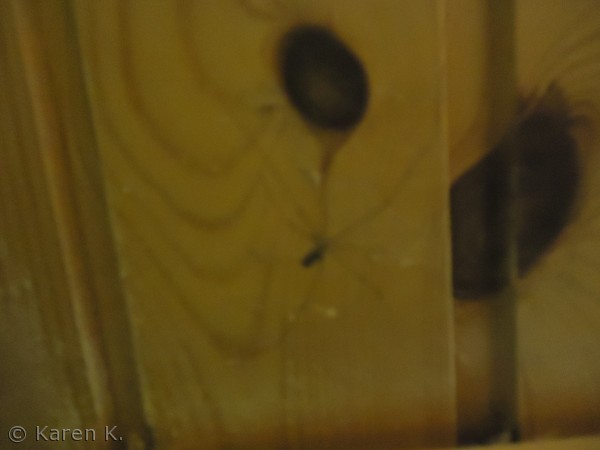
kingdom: Animalia
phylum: Arthropoda
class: Arachnida
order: Araneae
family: Pholcidae
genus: Pholcus
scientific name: Pholcus phalangioides
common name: Mejeredderkop
